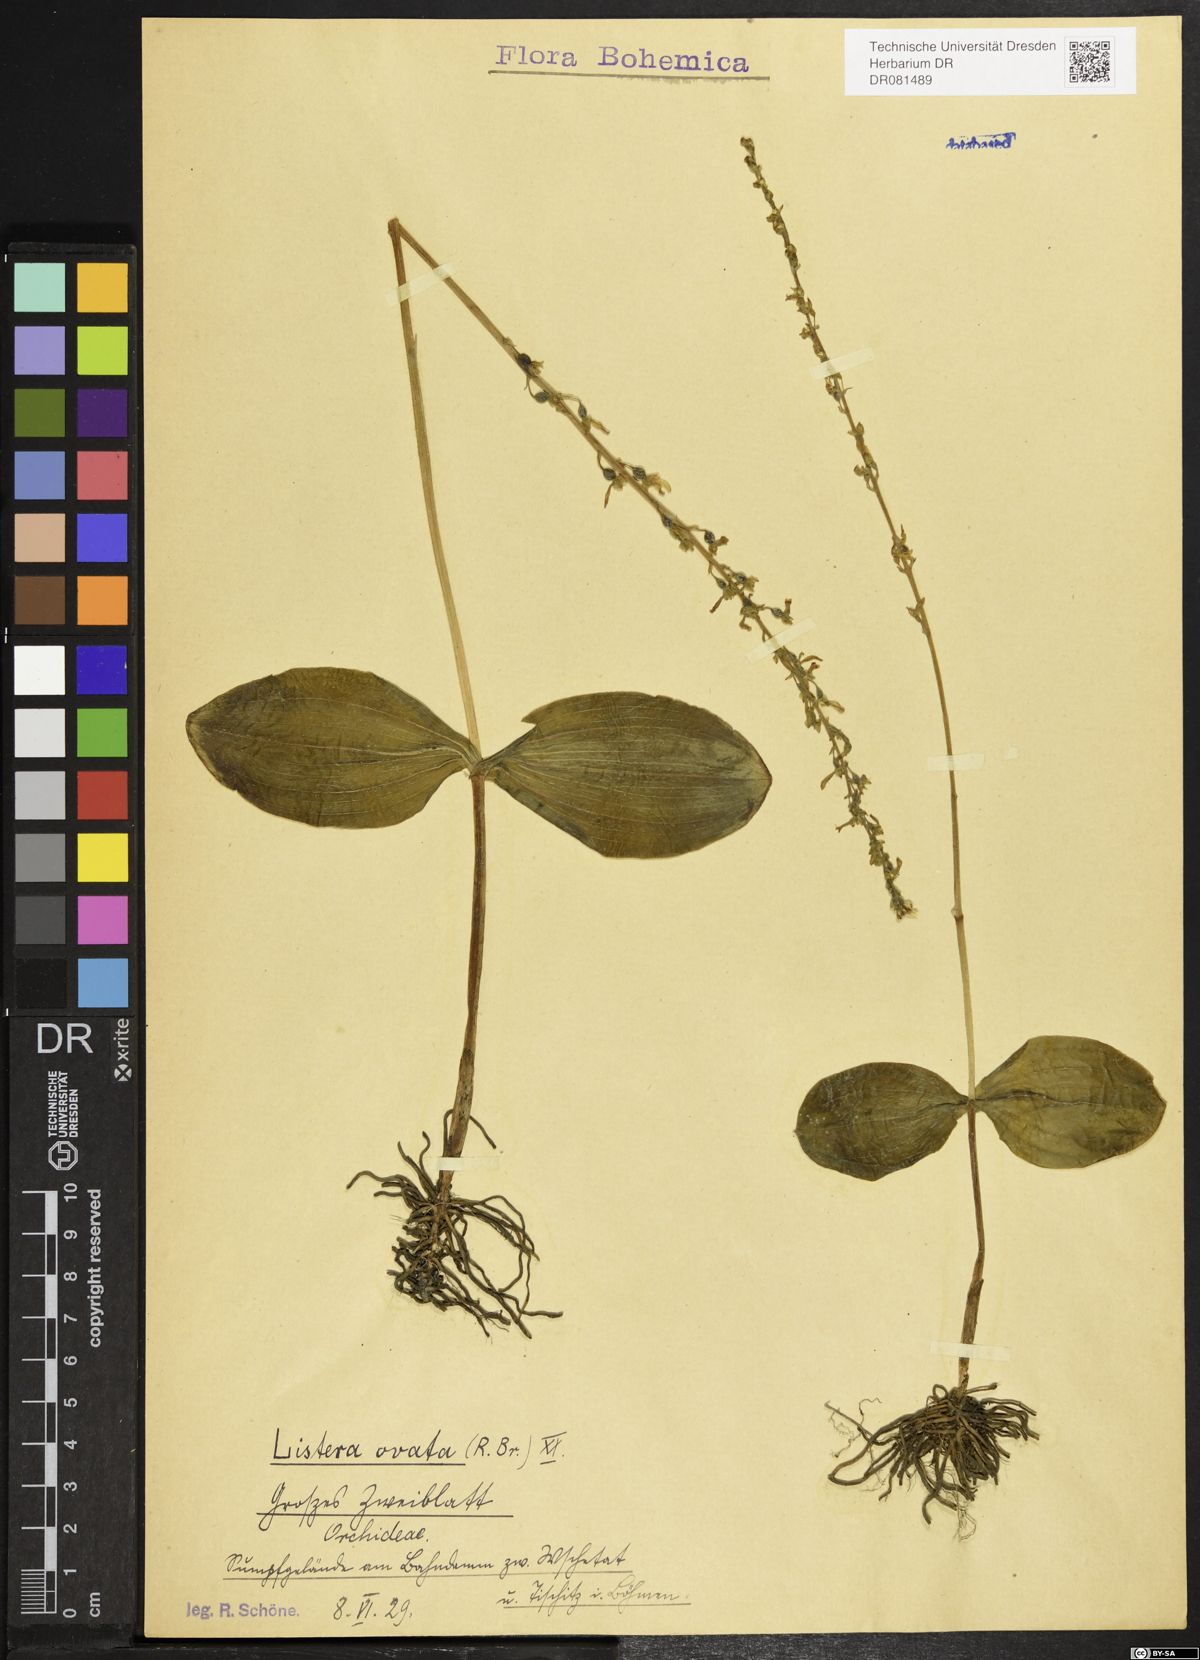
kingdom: Plantae
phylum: Tracheophyta
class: Liliopsida
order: Asparagales
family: Orchidaceae
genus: Neottia
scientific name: Neottia ovata
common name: Common twayblade
